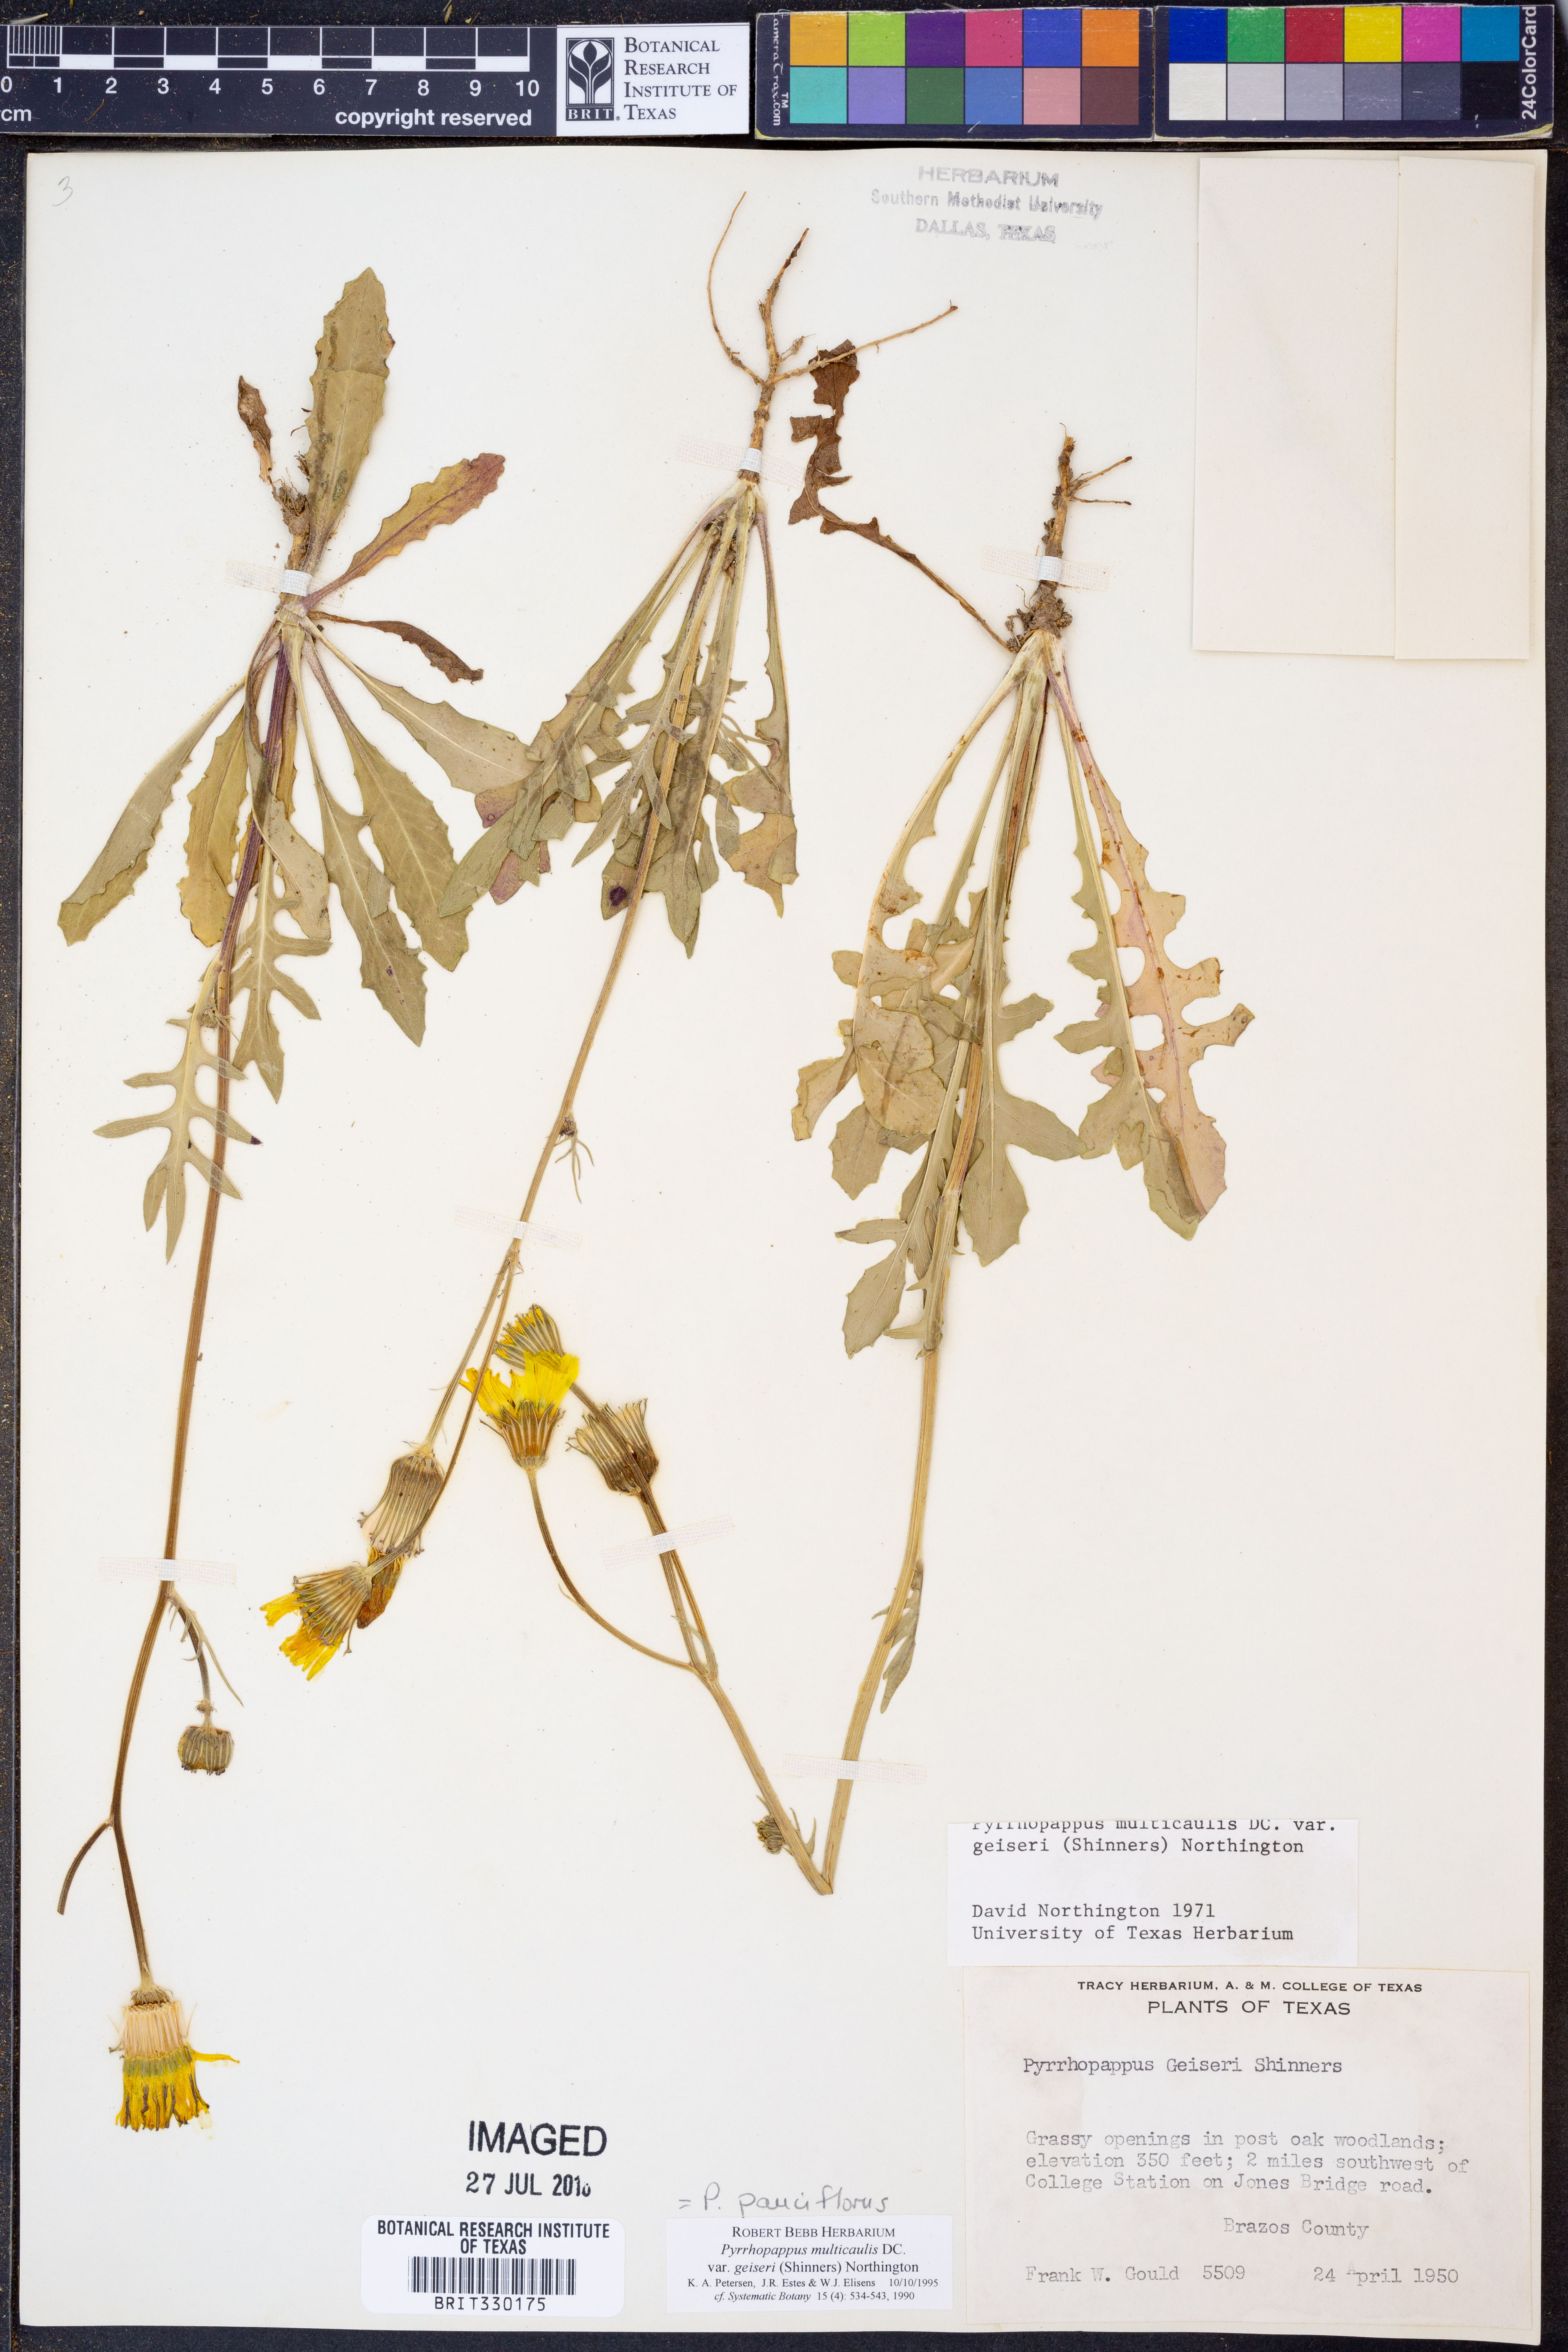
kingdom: Plantae
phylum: Tracheophyta
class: Magnoliopsida
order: Asterales
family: Asteraceae
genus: Pyrrhopappus
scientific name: Pyrrhopappus pauciflorus
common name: Texas false dandelion
